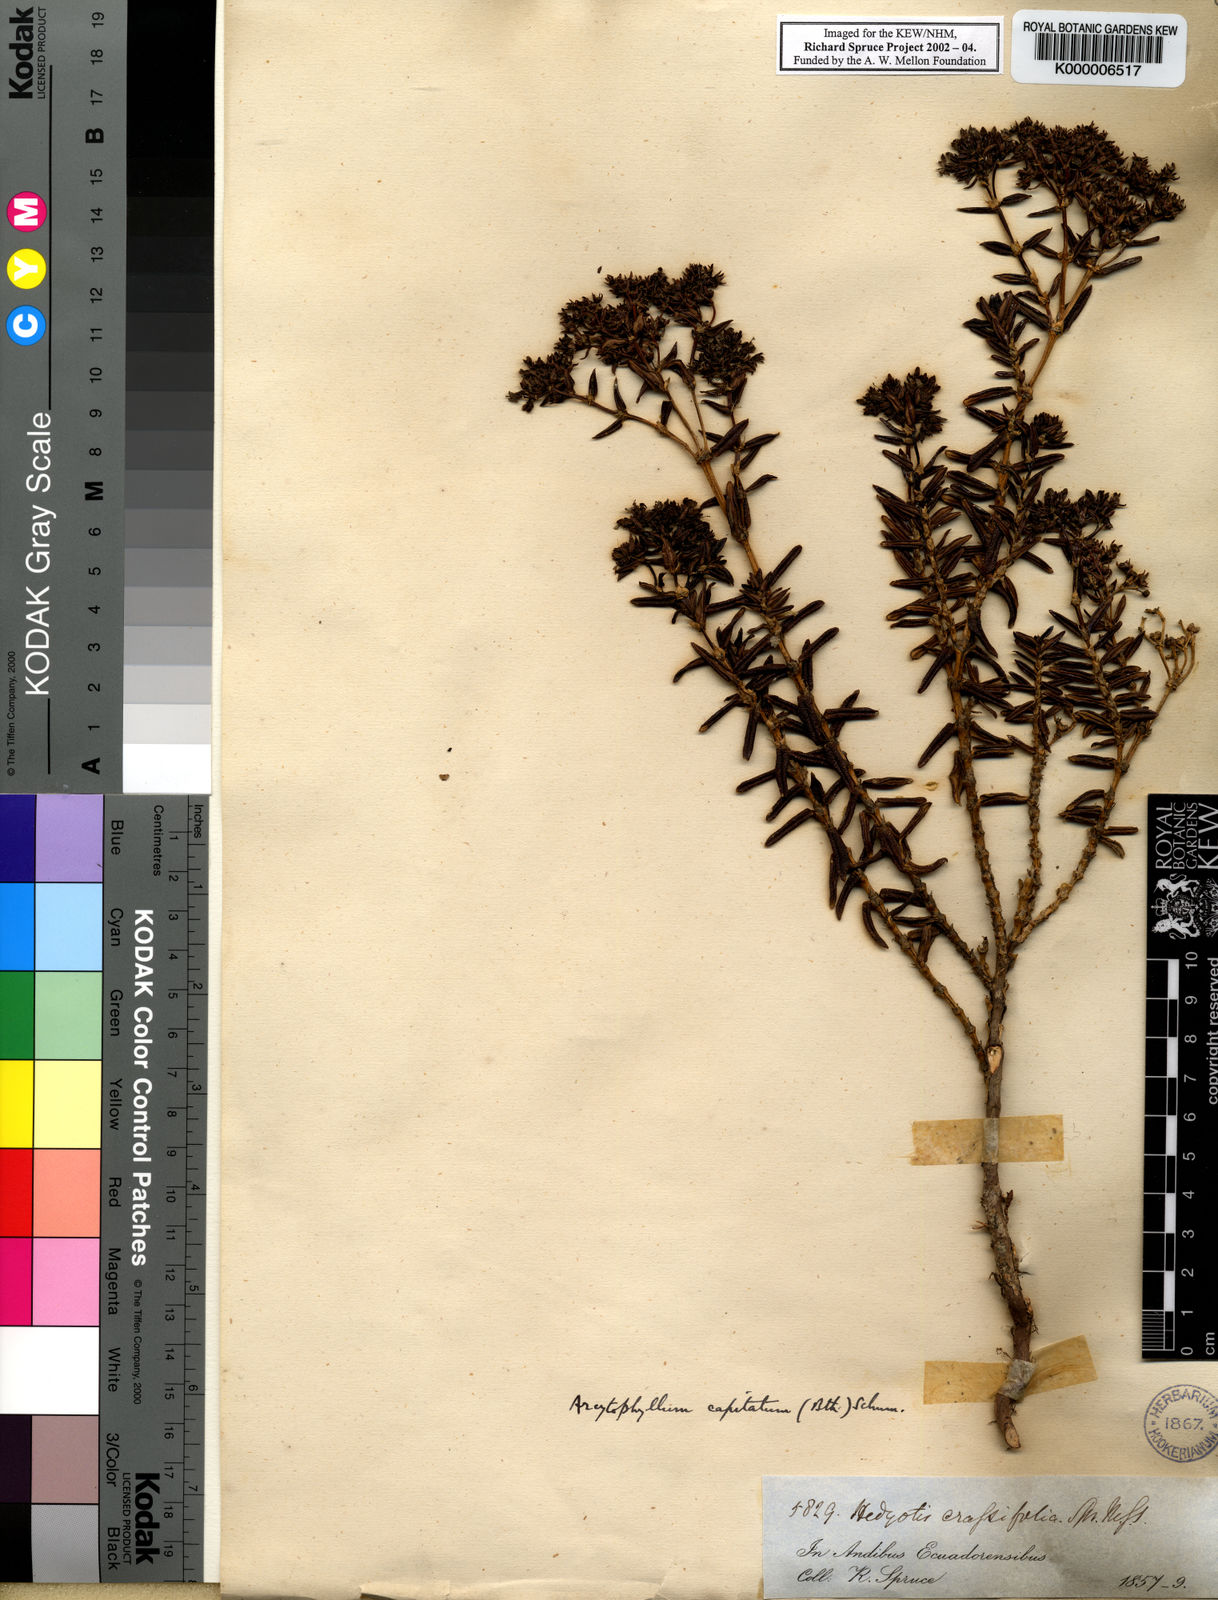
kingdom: Plantae
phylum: Tracheophyta
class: Magnoliopsida
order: Gentianales
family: Rubiaceae
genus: Arcytophyllum
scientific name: Arcytophyllum capitatum
